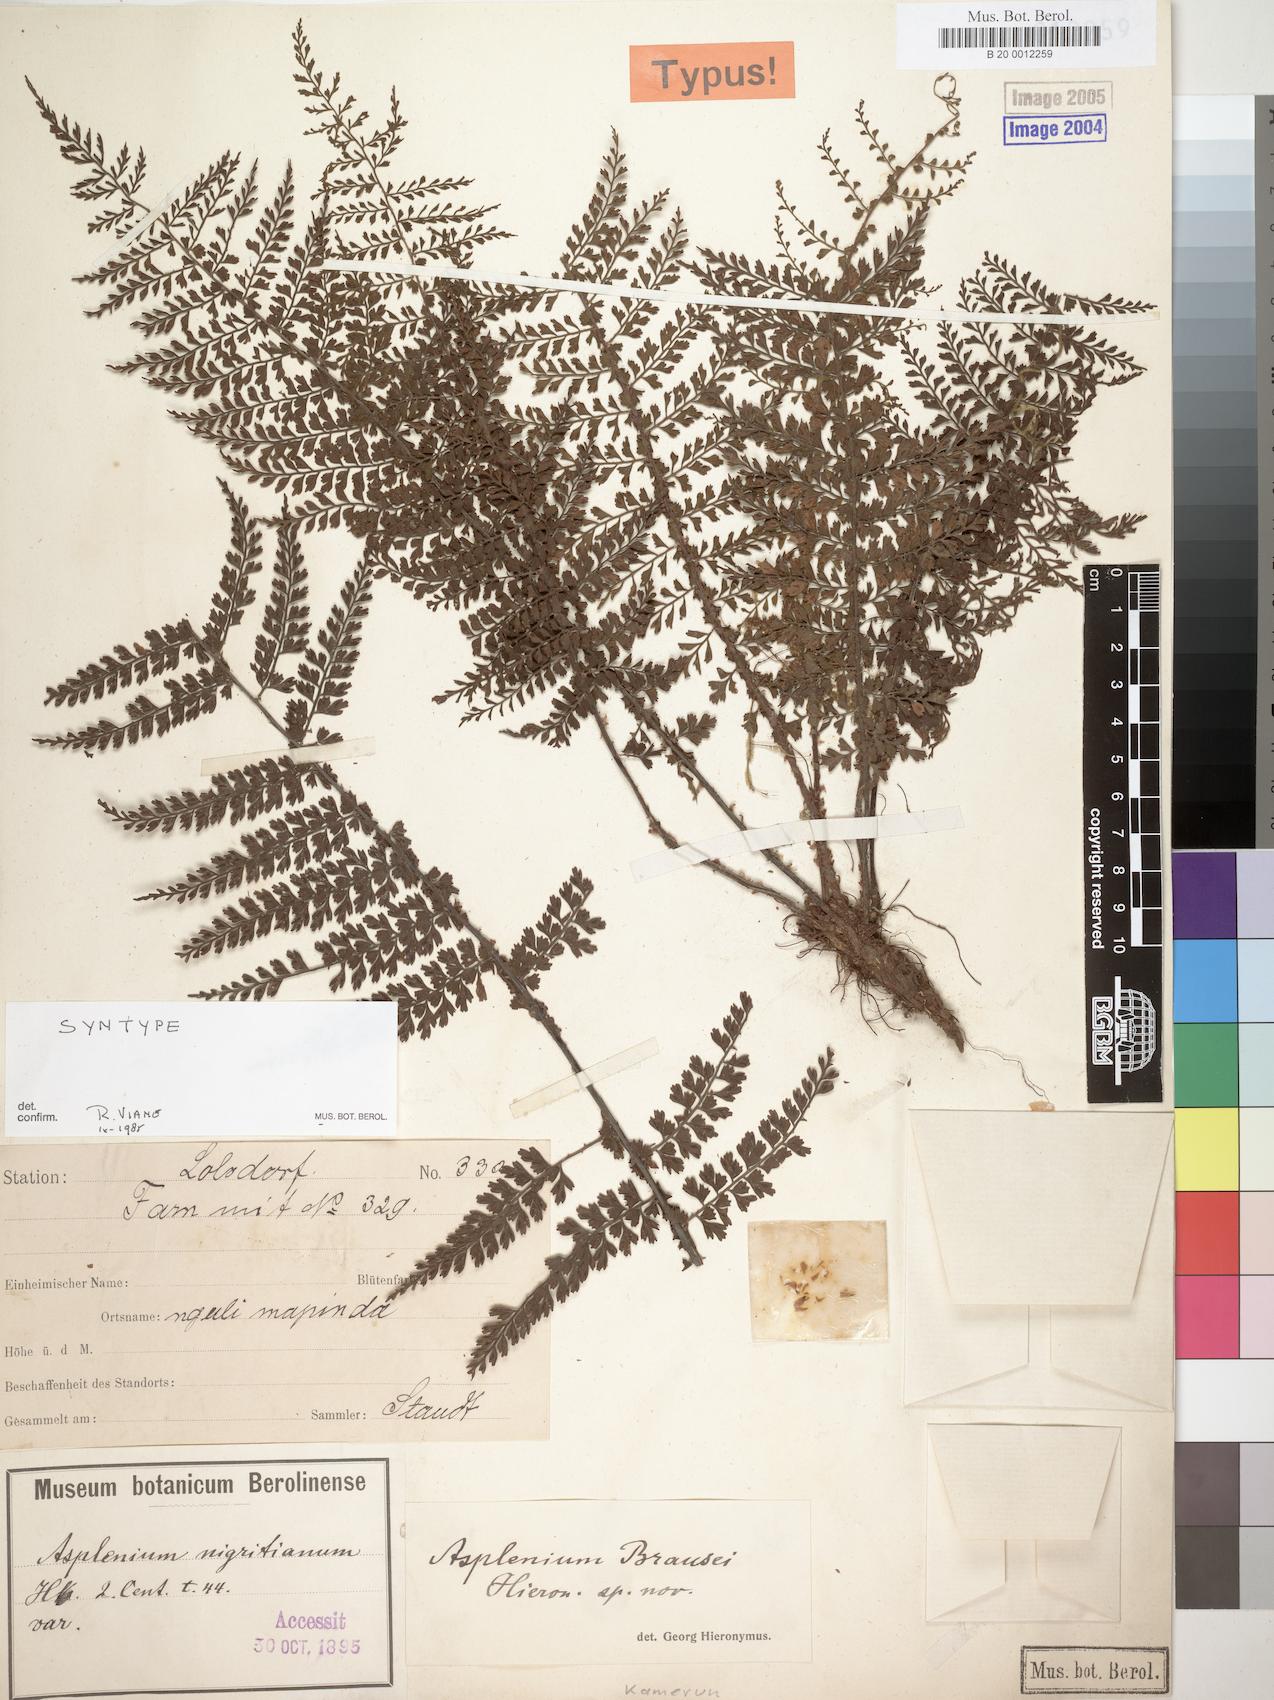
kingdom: Plantae
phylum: Tracheophyta
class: Polypodiopsida
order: Polypodiales
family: Aspleniaceae
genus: Asplenium
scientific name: Asplenium brausei
